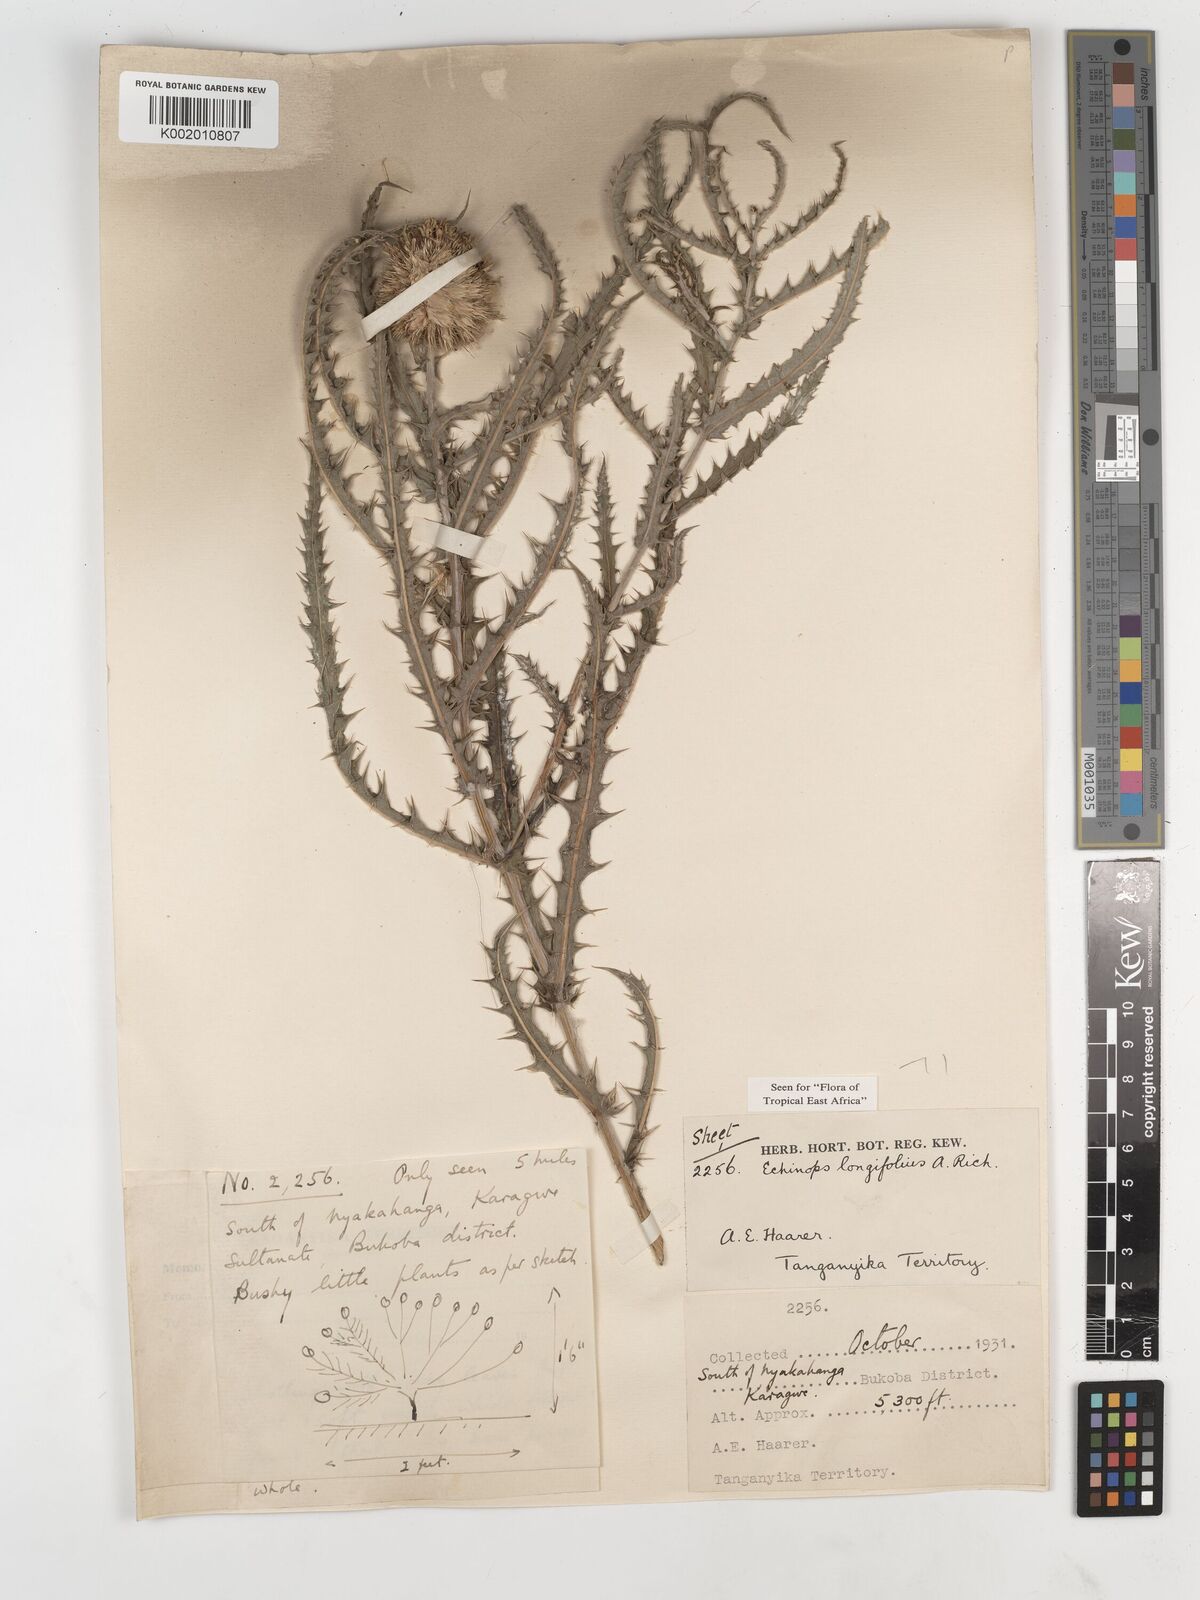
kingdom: Plantae
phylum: Tracheophyta
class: Magnoliopsida
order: Asterales
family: Asteraceae
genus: Echinops
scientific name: Echinops longifolius
